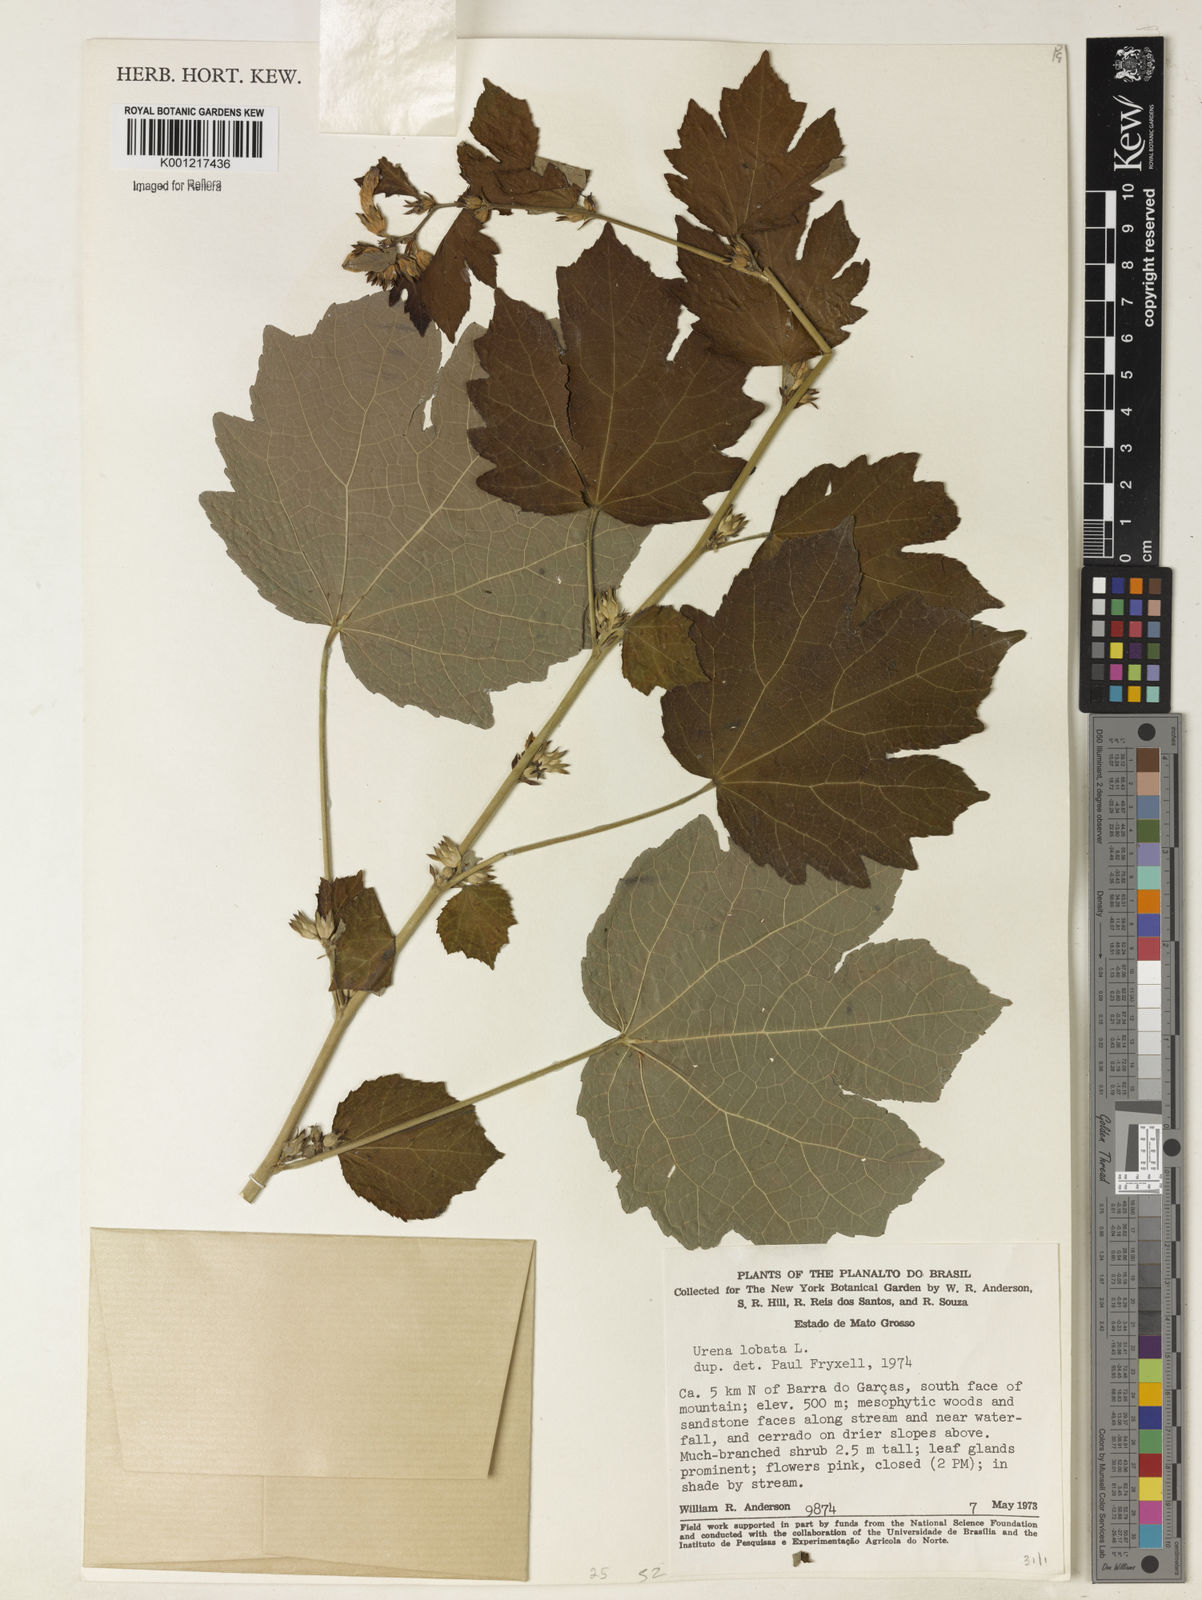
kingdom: Plantae
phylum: Tracheophyta
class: Magnoliopsida
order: Malvales
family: Malvaceae
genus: Urena
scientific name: Urena lobata
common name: Caesarweed
